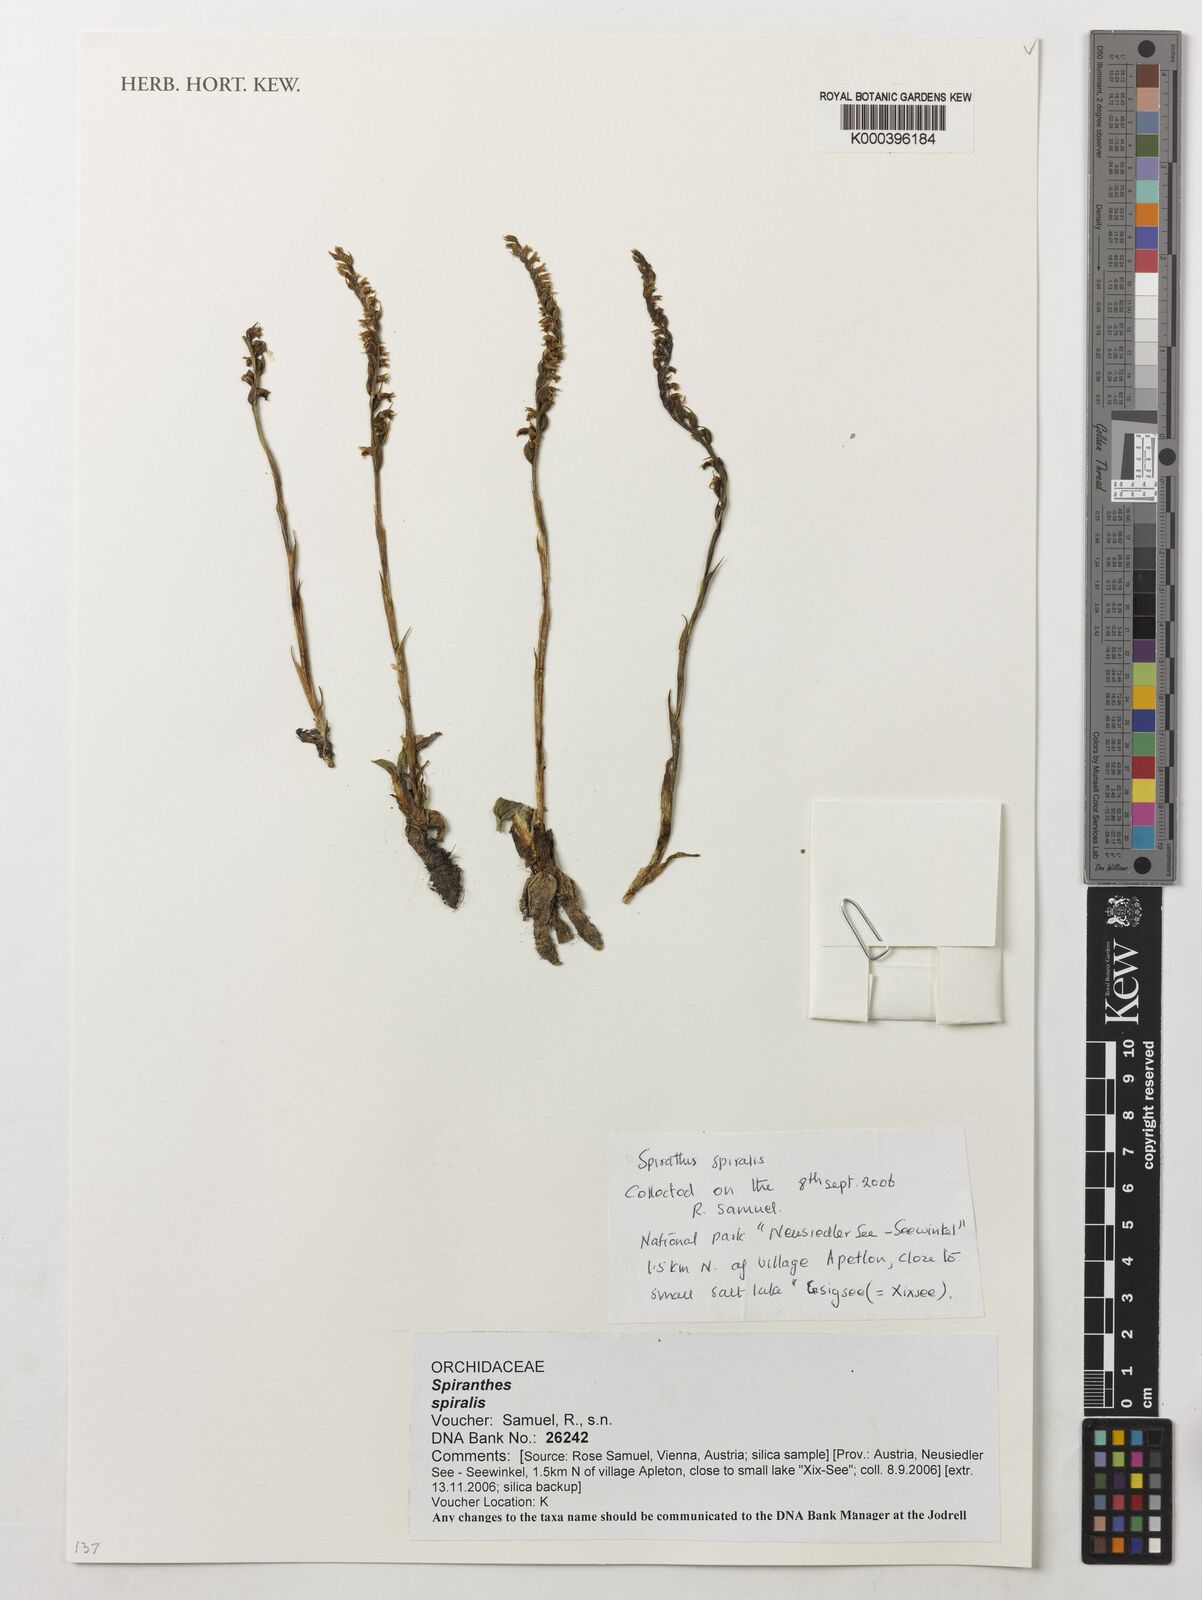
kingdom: Plantae
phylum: Tracheophyta
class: Liliopsida
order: Asparagales
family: Orchidaceae
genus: Spiranthes
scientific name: Spiranthes spiralis
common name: Autumn lady's-tresses
